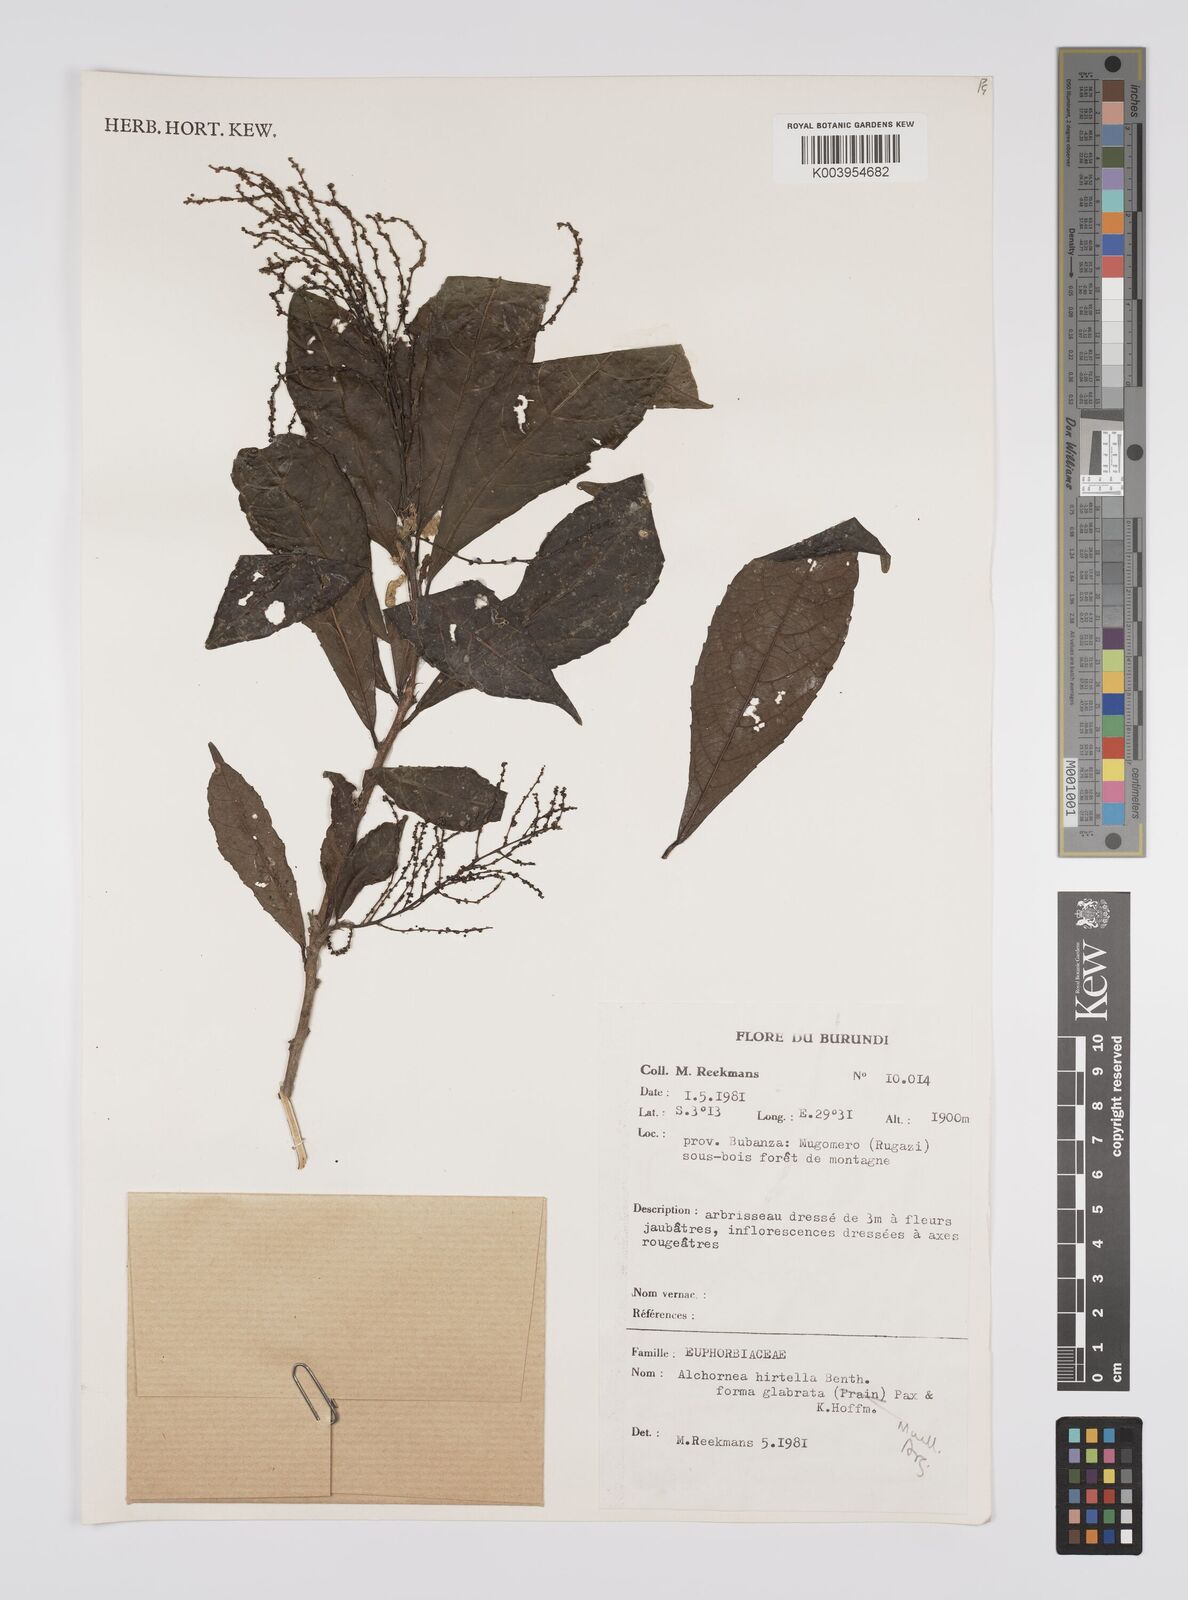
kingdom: Plantae
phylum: Tracheophyta
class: Magnoliopsida
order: Malpighiales
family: Euphorbiaceae
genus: Alchornea
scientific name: Alchornea hirtella
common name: Forest bead-string
